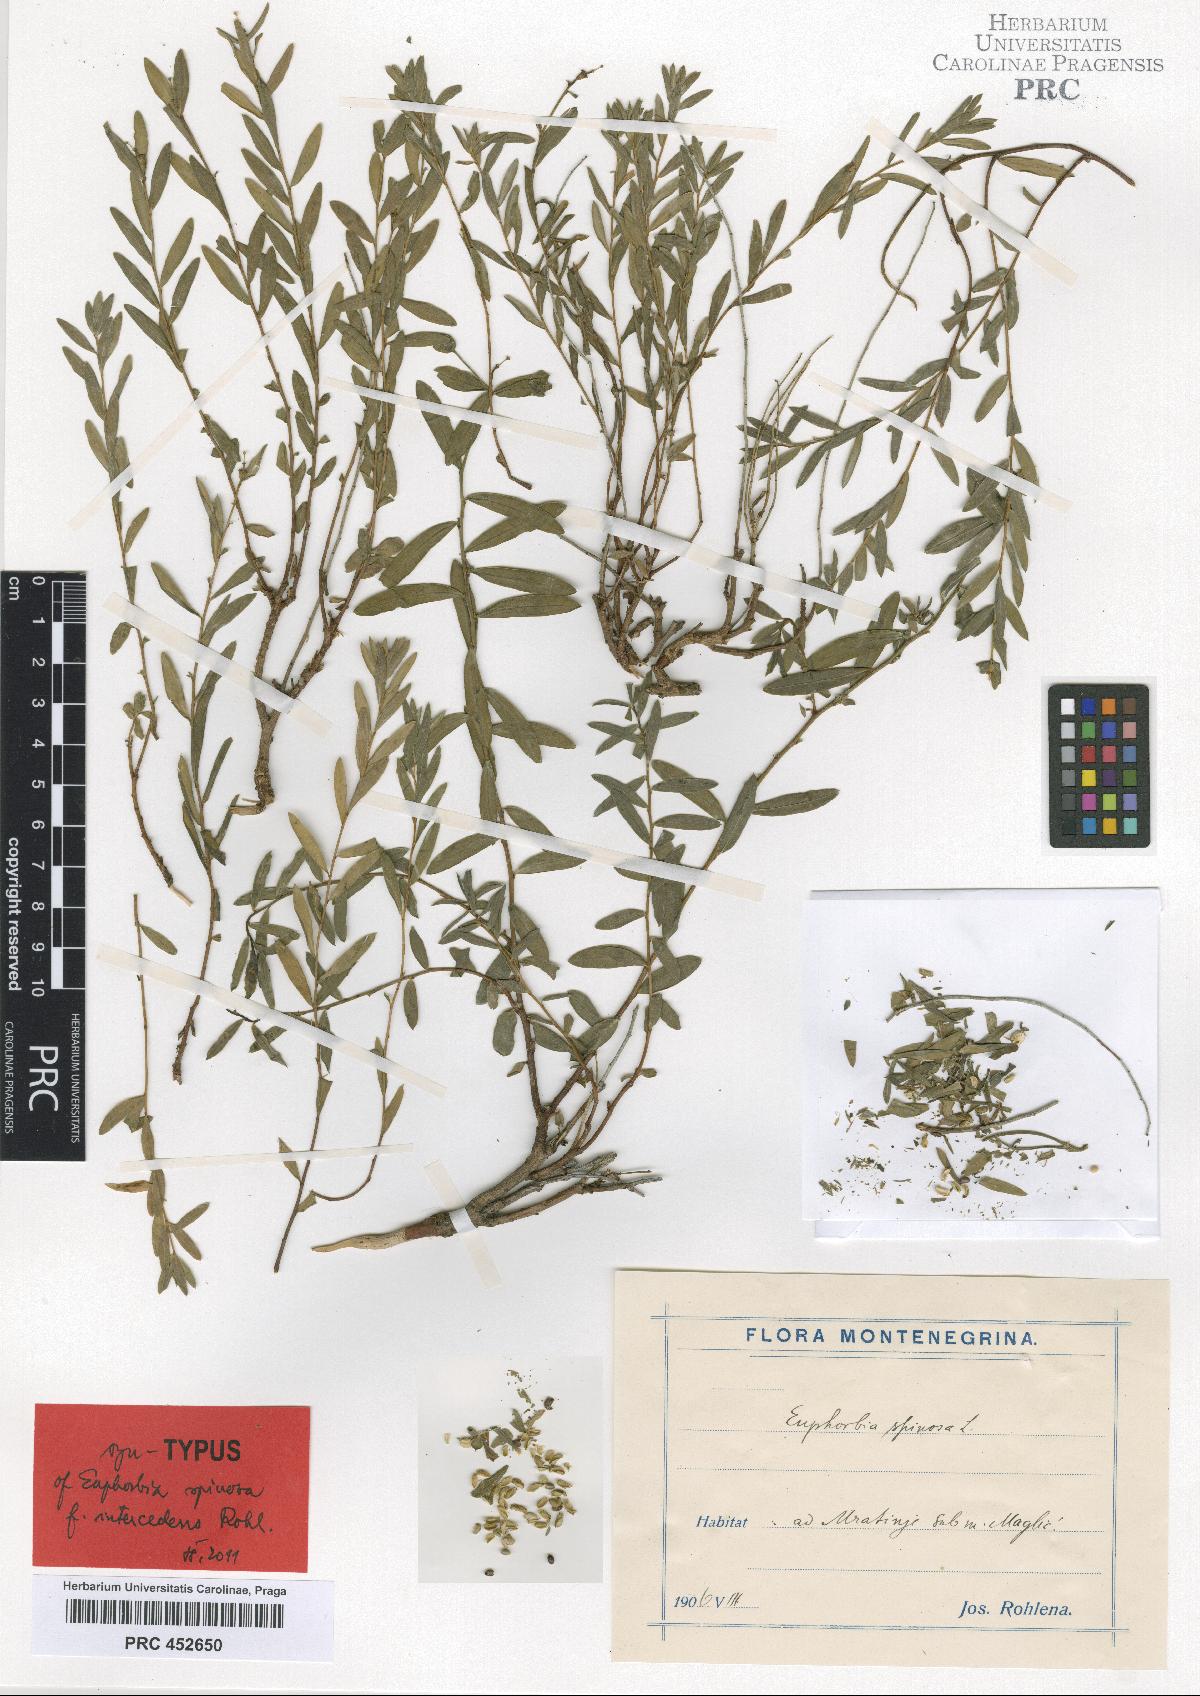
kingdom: Plantae
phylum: Tracheophyta
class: Magnoliopsida
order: Malpighiales
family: Euphorbiaceae
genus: Euphorbia
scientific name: Euphorbia spinosa
